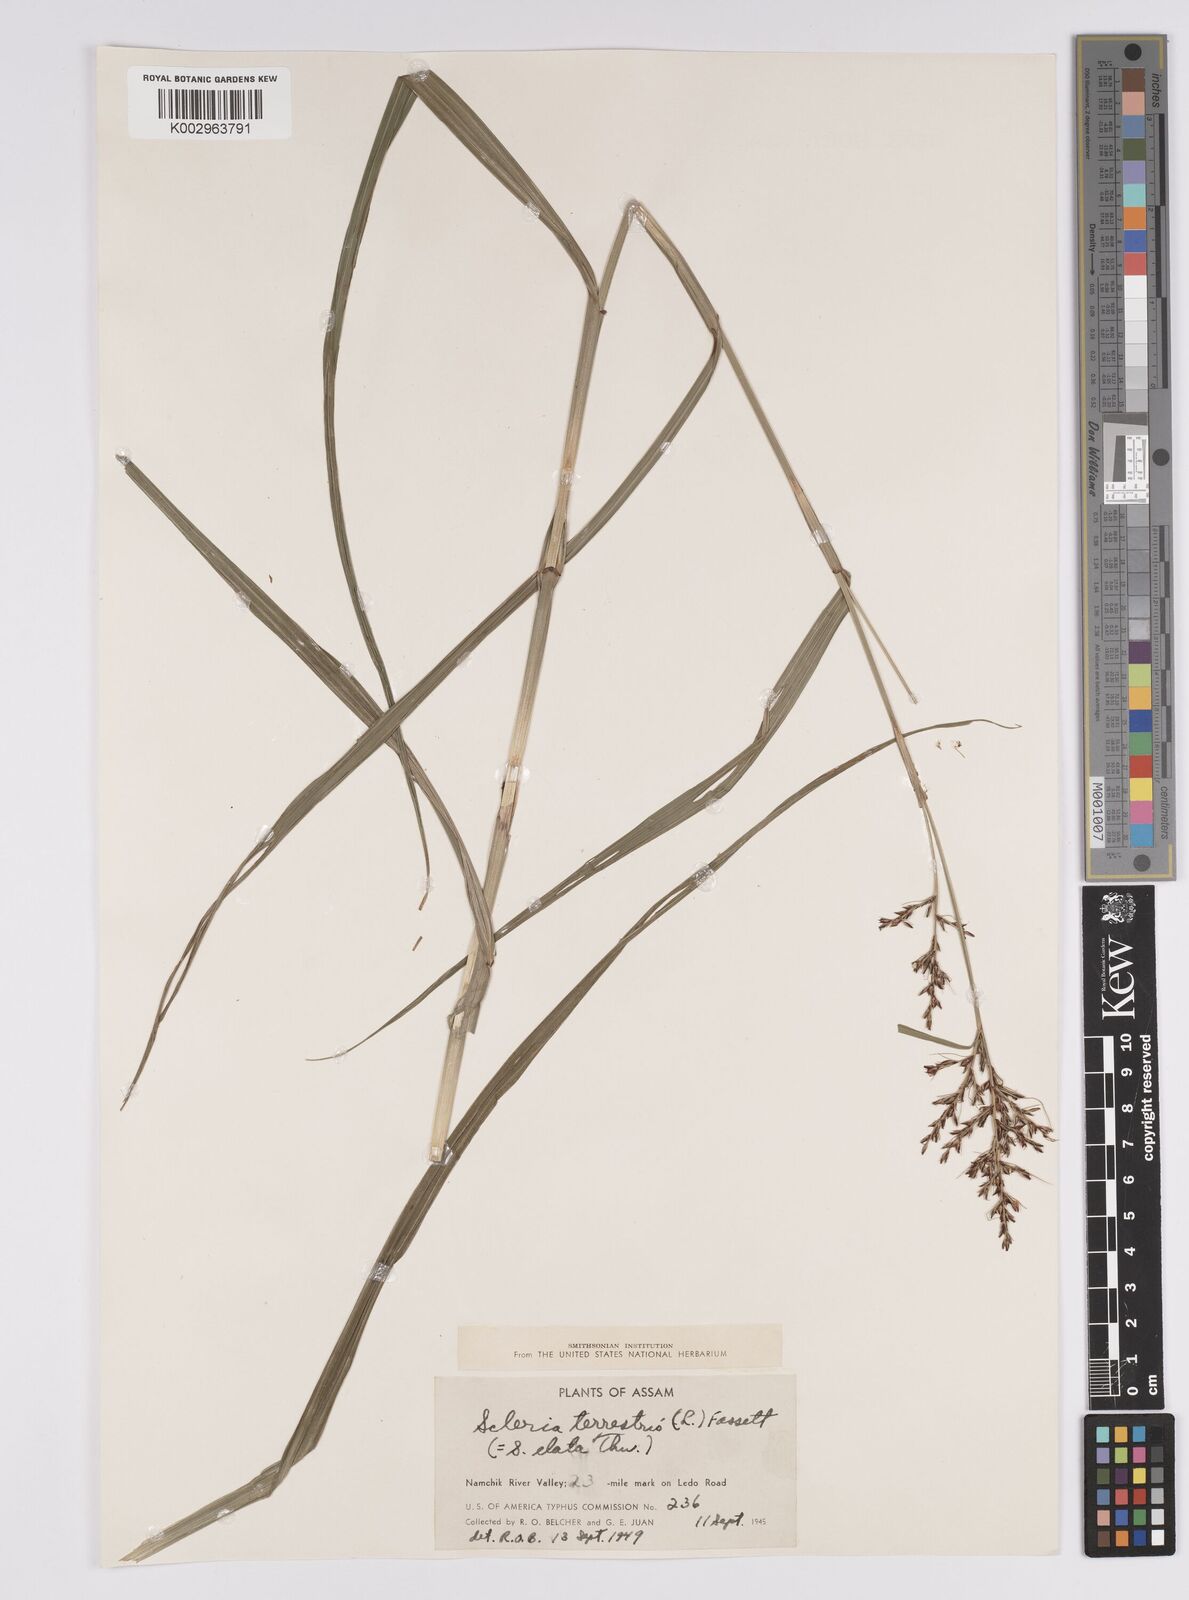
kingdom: Plantae
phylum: Tracheophyta
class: Liliopsida
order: Poales
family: Cyperaceae
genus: Scleria
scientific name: Scleria terrestris
